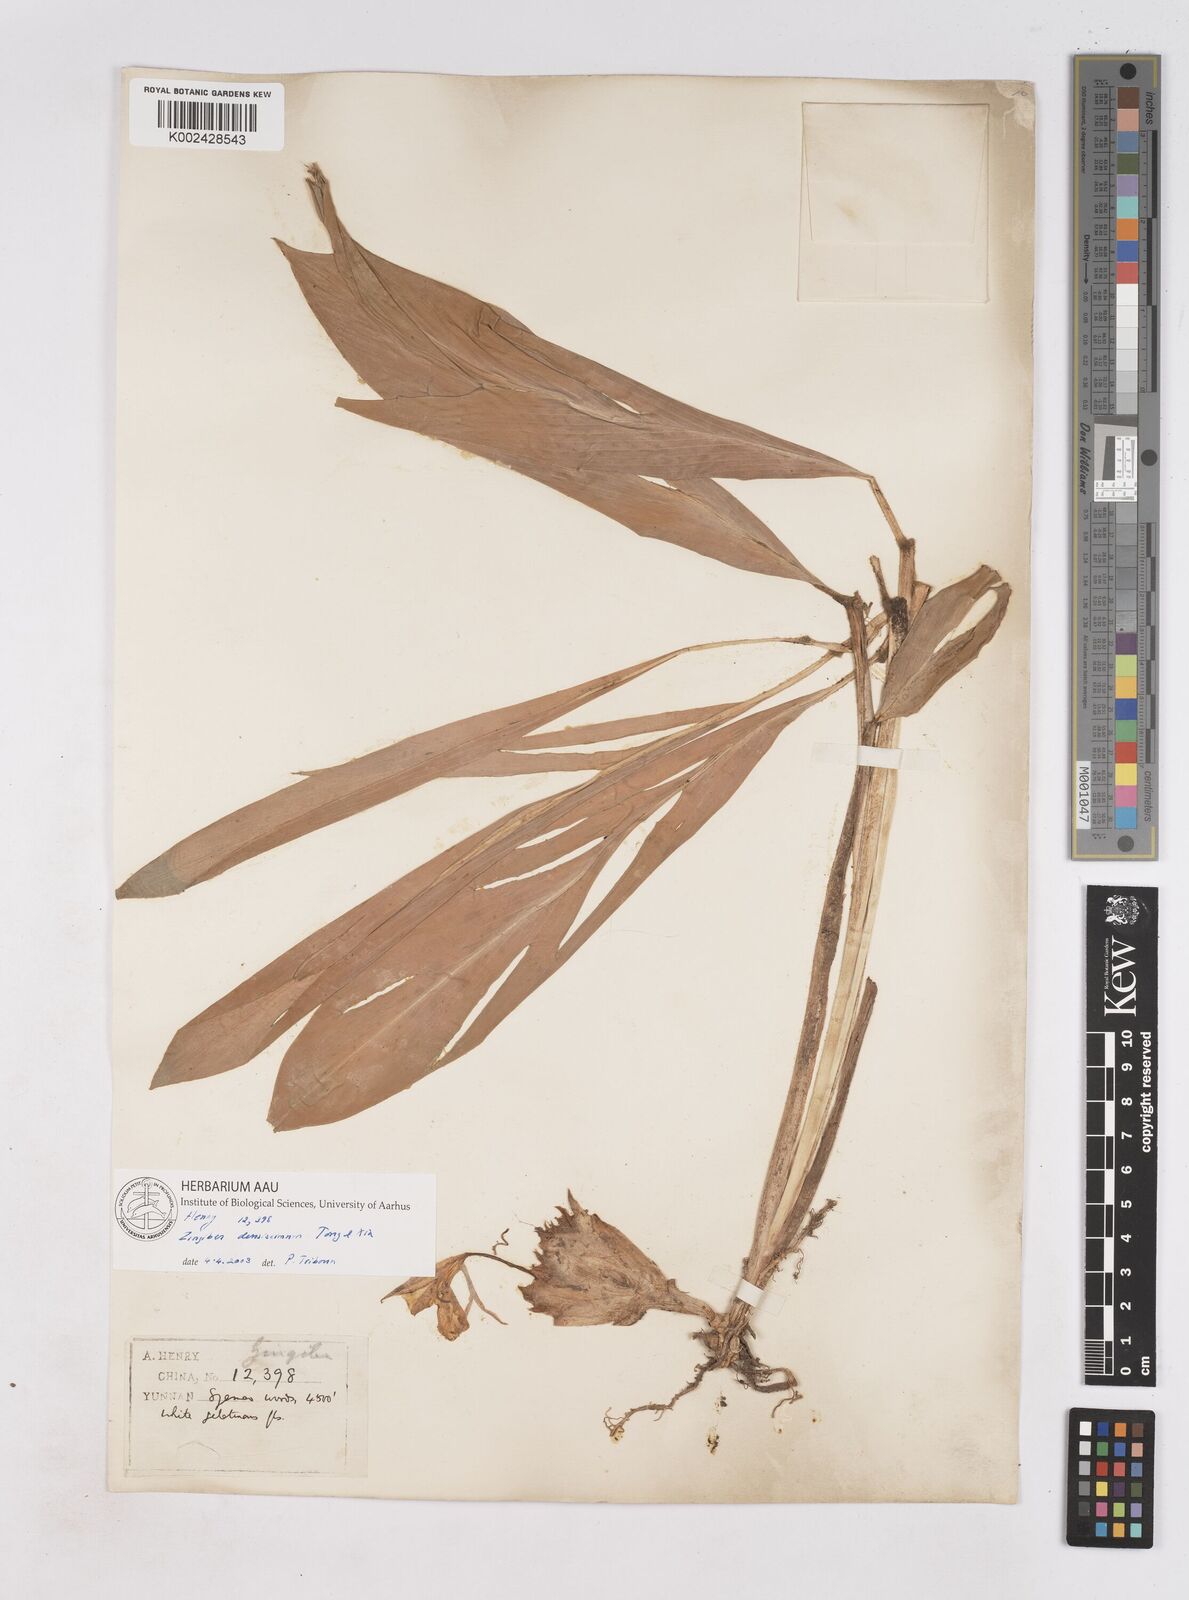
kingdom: Plantae
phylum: Tracheophyta
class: Liliopsida
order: Zingiberales
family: Zingiberaceae
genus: Zingiber
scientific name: Zingiber densissimum
